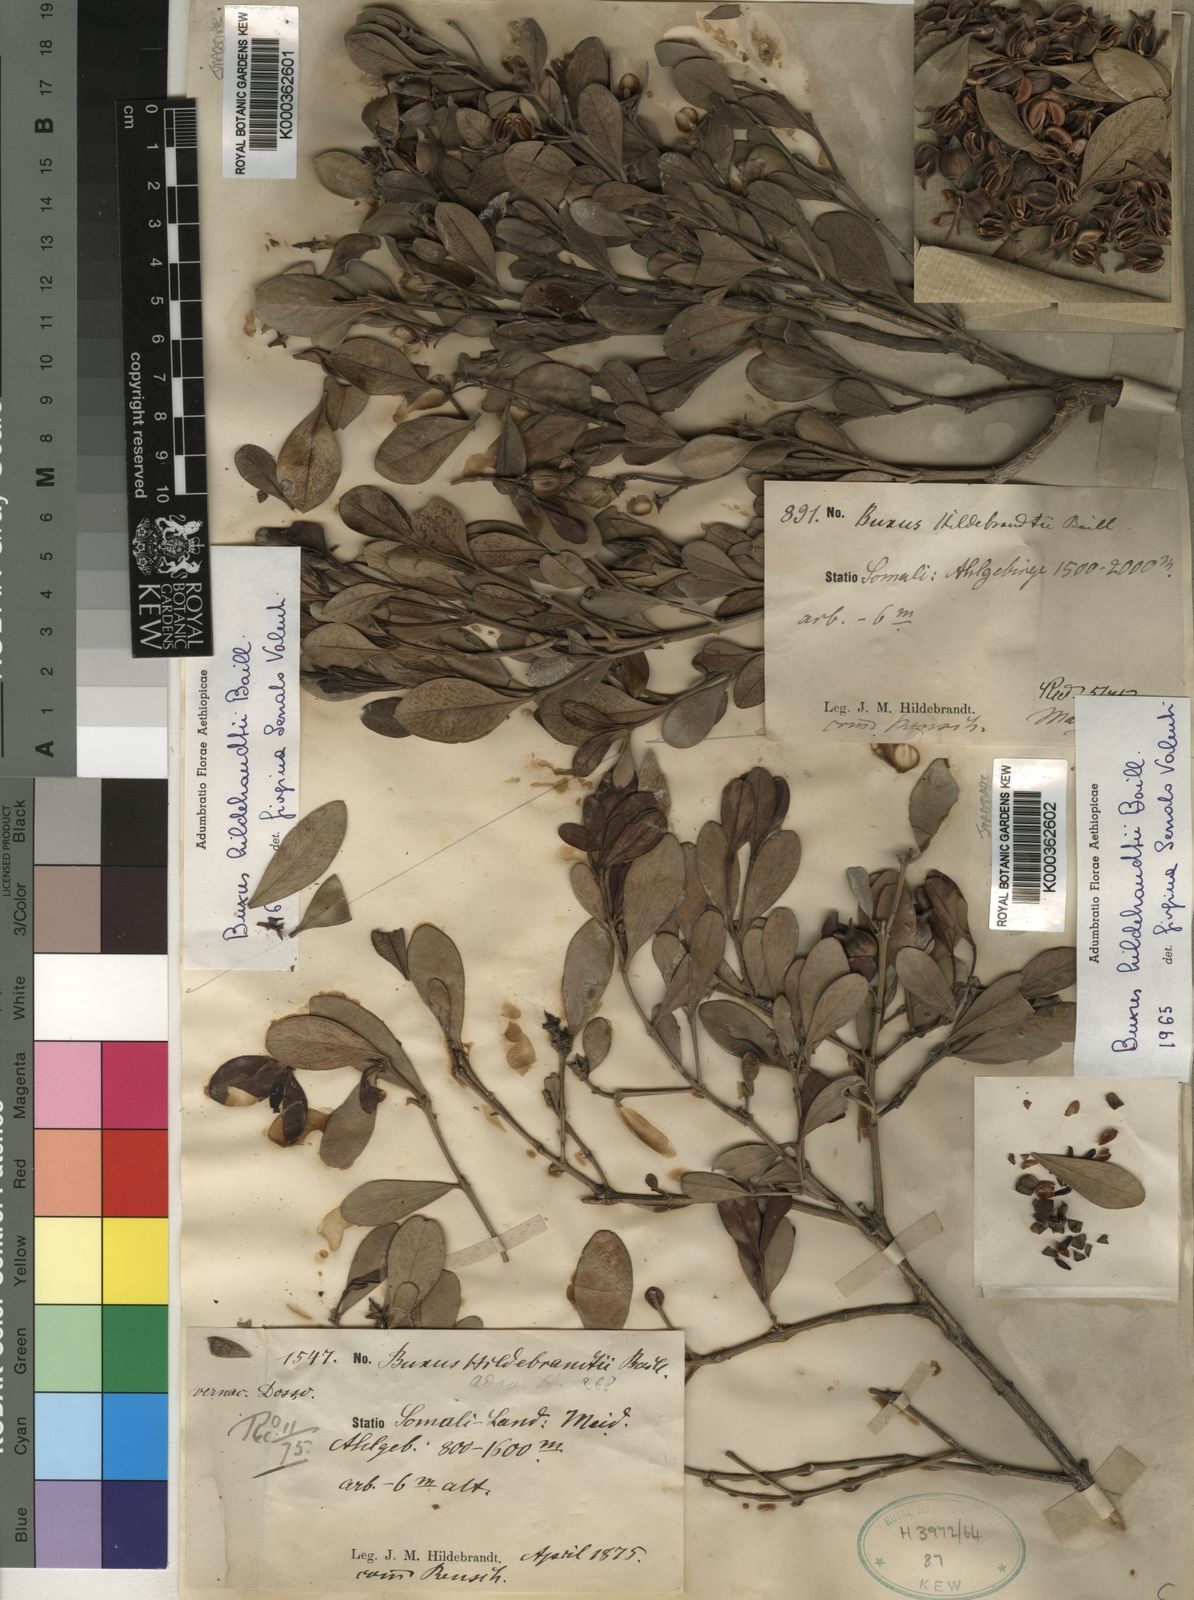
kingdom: Plantae
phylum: Tracheophyta
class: Magnoliopsida
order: Buxales
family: Buxaceae
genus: Buxus
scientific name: Buxus hildebrandtii
